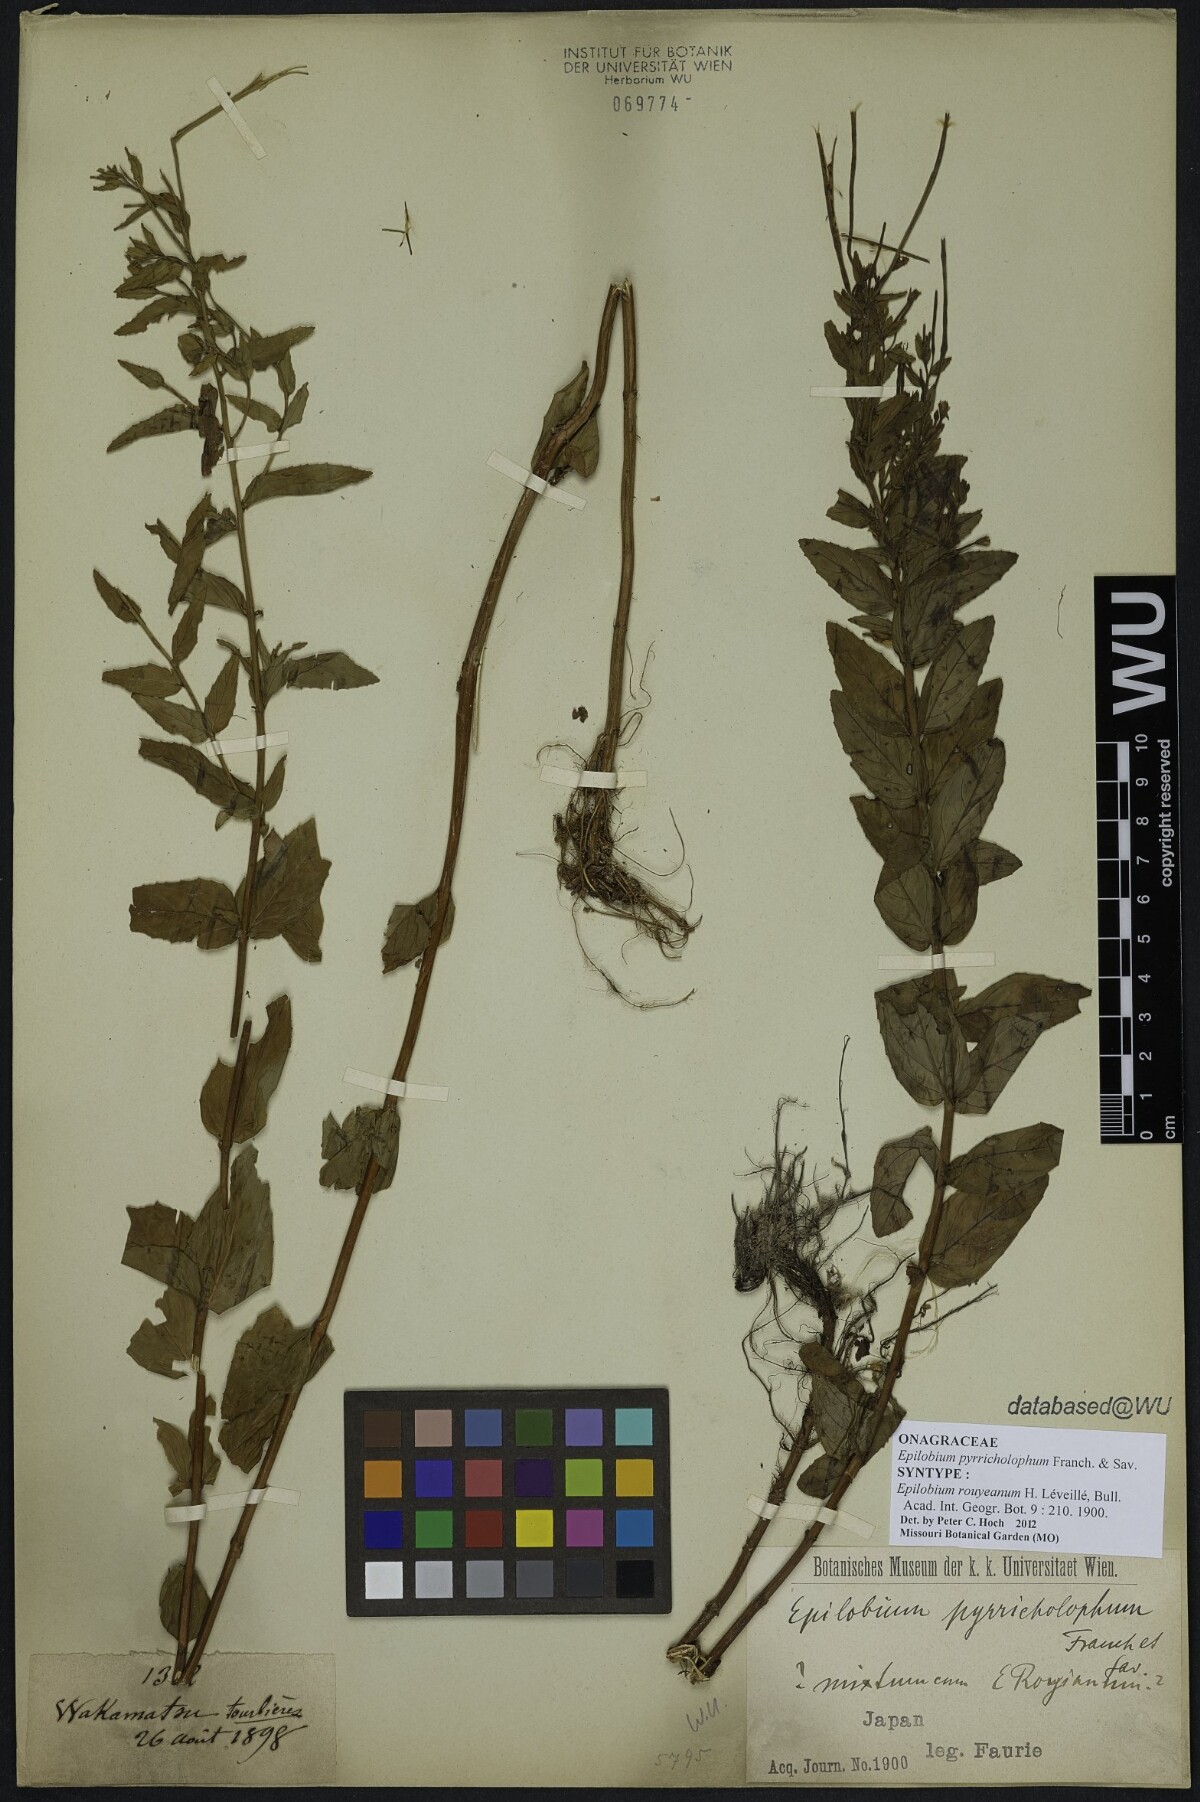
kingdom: Plantae
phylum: Tracheophyta
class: Magnoliopsida
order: Myrtales
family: Onagraceae
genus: Epilobium
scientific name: Epilobium pyrricholophum
